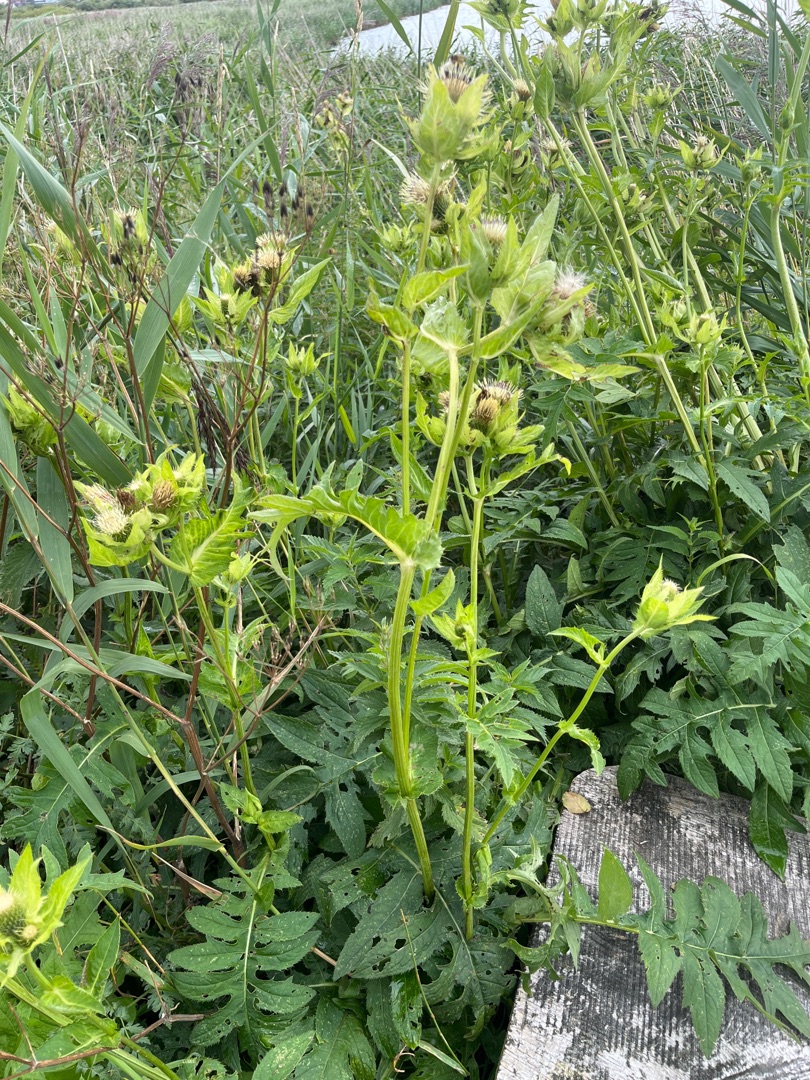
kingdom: Plantae
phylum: Tracheophyta
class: Magnoliopsida
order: Asterales
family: Asteraceae
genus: Cirsium
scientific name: Cirsium oleraceum
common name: Kål-tidsel
